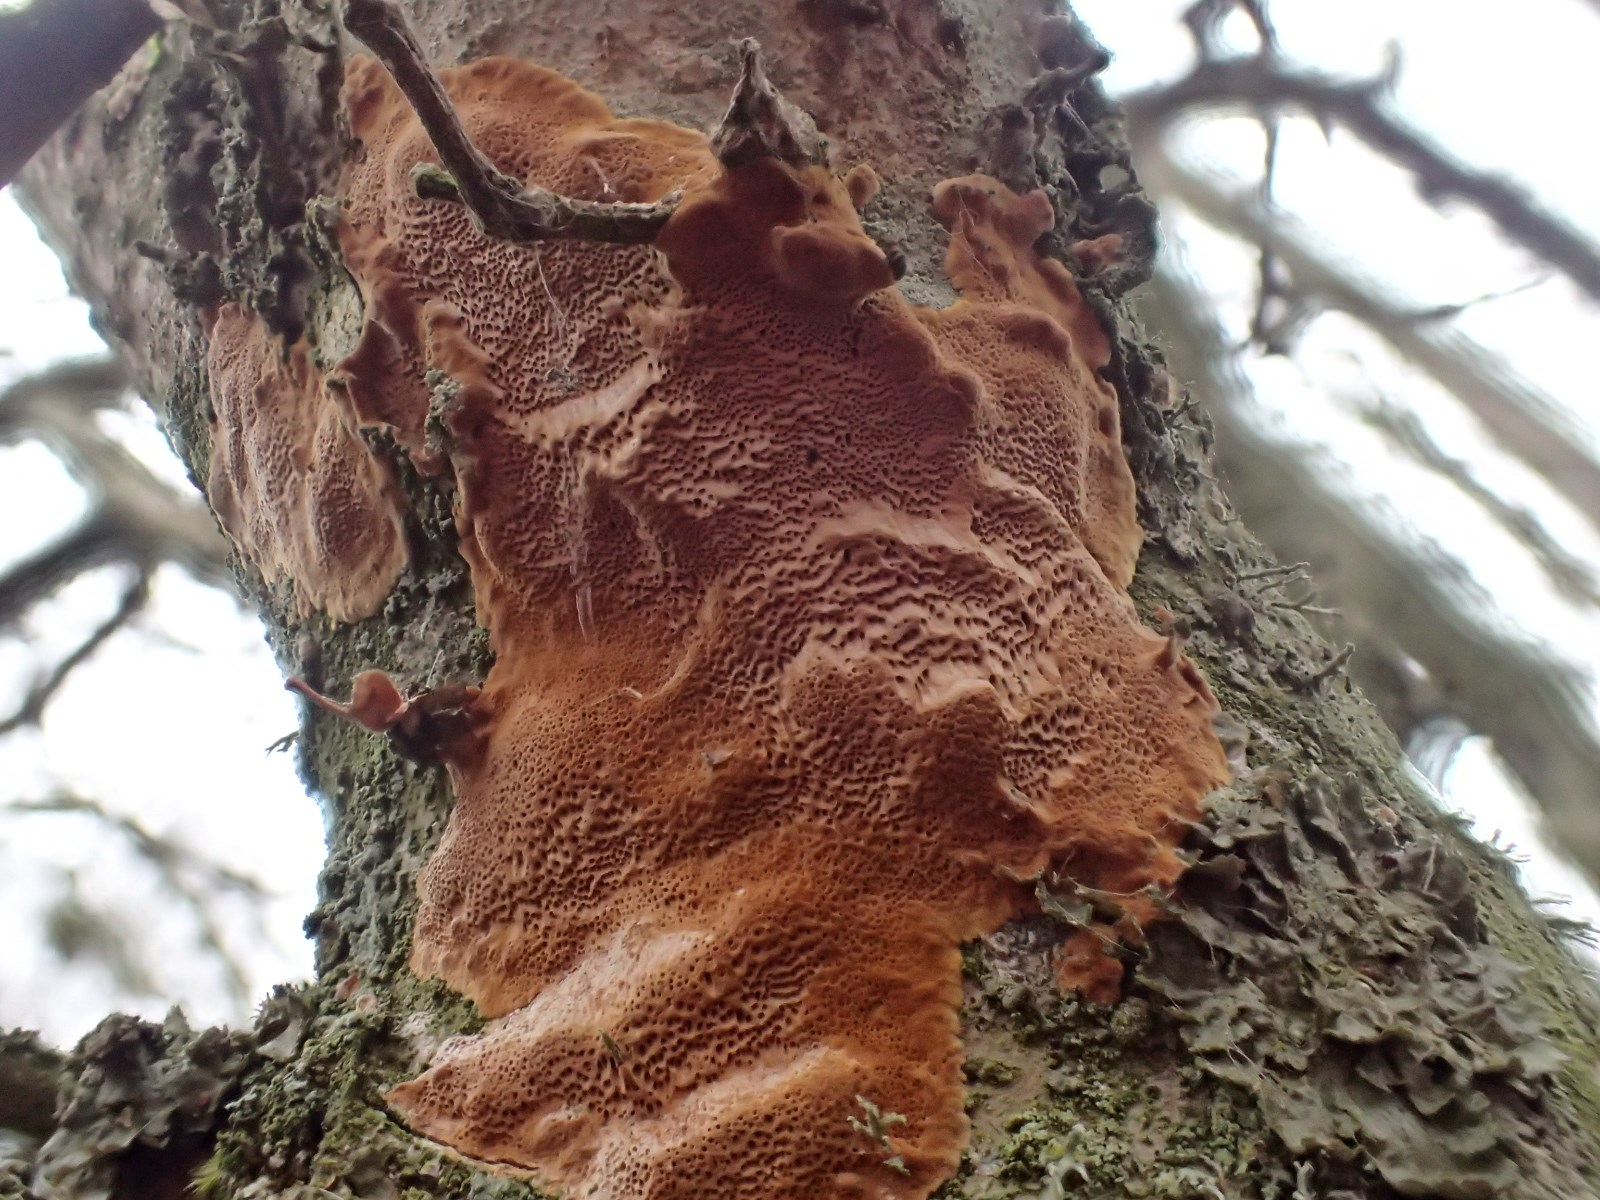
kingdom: Fungi
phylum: Basidiomycota
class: Agaricomycetes
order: Hymenochaetales
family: Hymenochaetaceae
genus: Fuscoporia
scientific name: Fuscoporia ferrea
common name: skorpe-ildporesvamp
